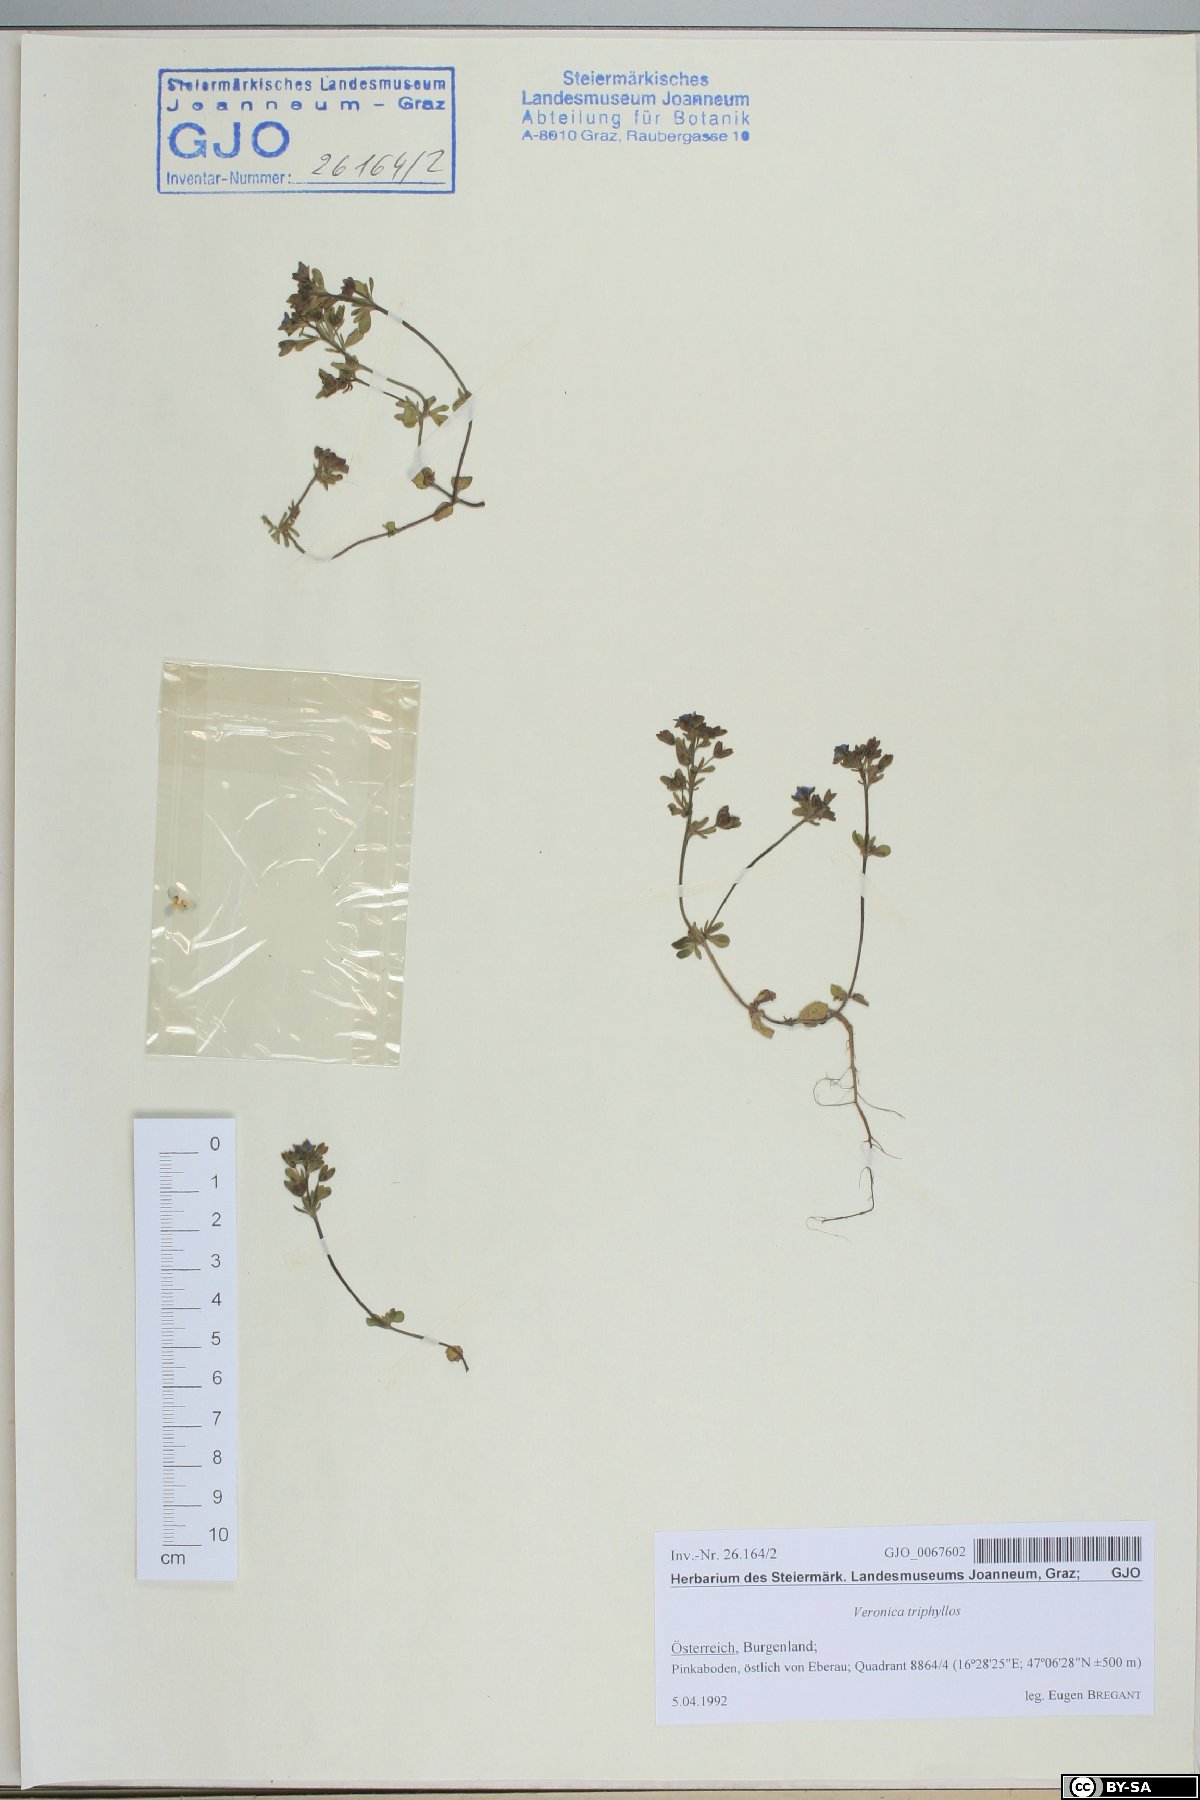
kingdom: Plantae
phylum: Tracheophyta
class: Magnoliopsida
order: Lamiales
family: Plantaginaceae
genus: Veronica
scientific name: Veronica triphyllos
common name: Fingered speedwell
